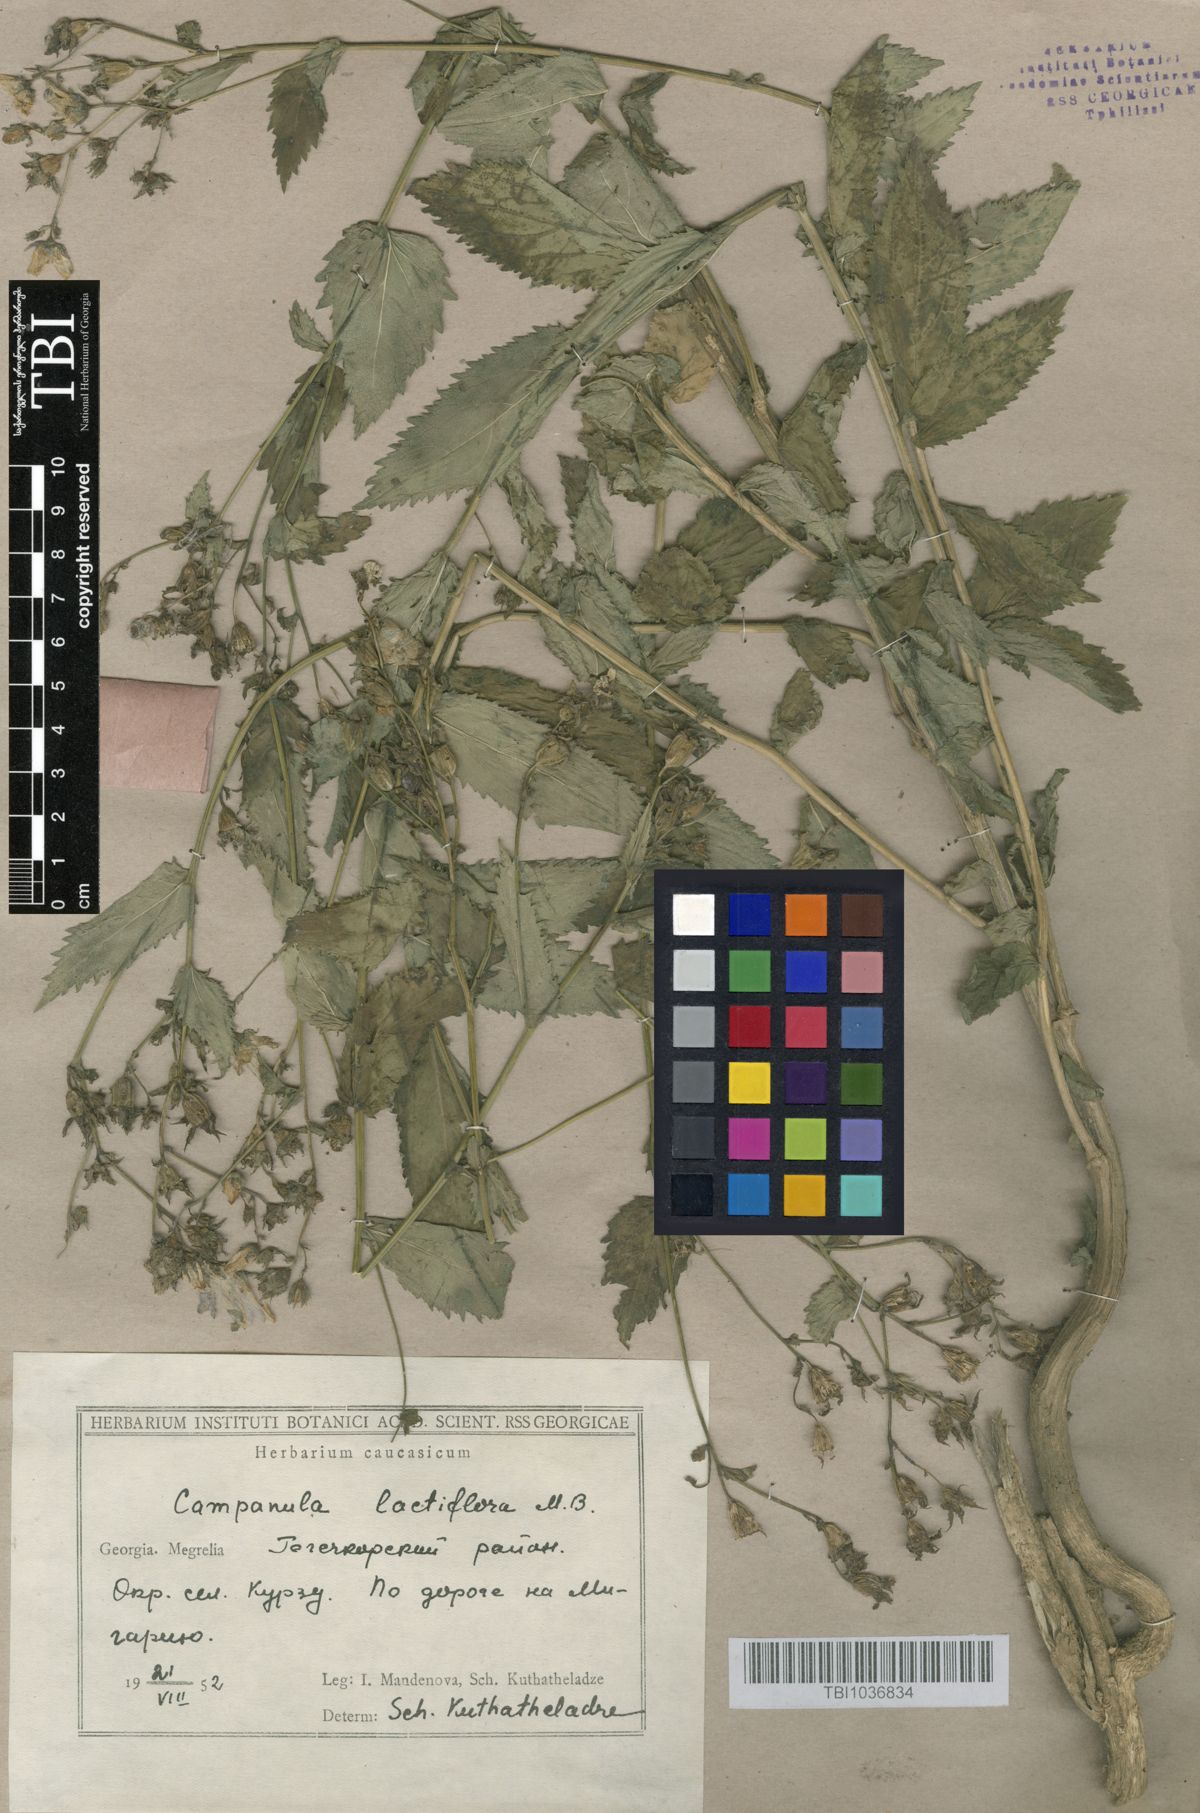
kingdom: Plantae
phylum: Tracheophyta
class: Magnoliopsida
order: Asterales
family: Campanulaceae
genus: Campanula
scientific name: Campanula lactiflora
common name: Milky bellflower
